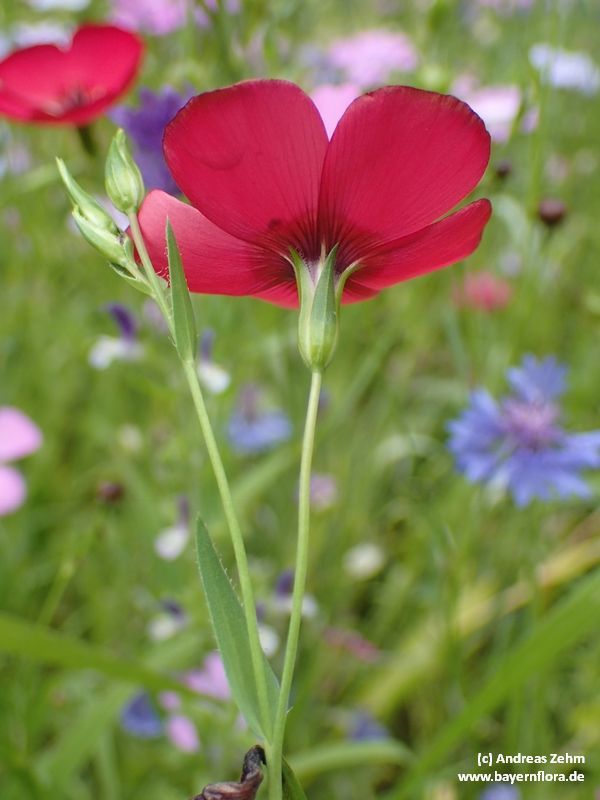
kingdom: Plantae
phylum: Tracheophyta
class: Magnoliopsida
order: Malpighiales
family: Linaceae
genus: Linum
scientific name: Linum grandiflorum
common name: Crimson flax
